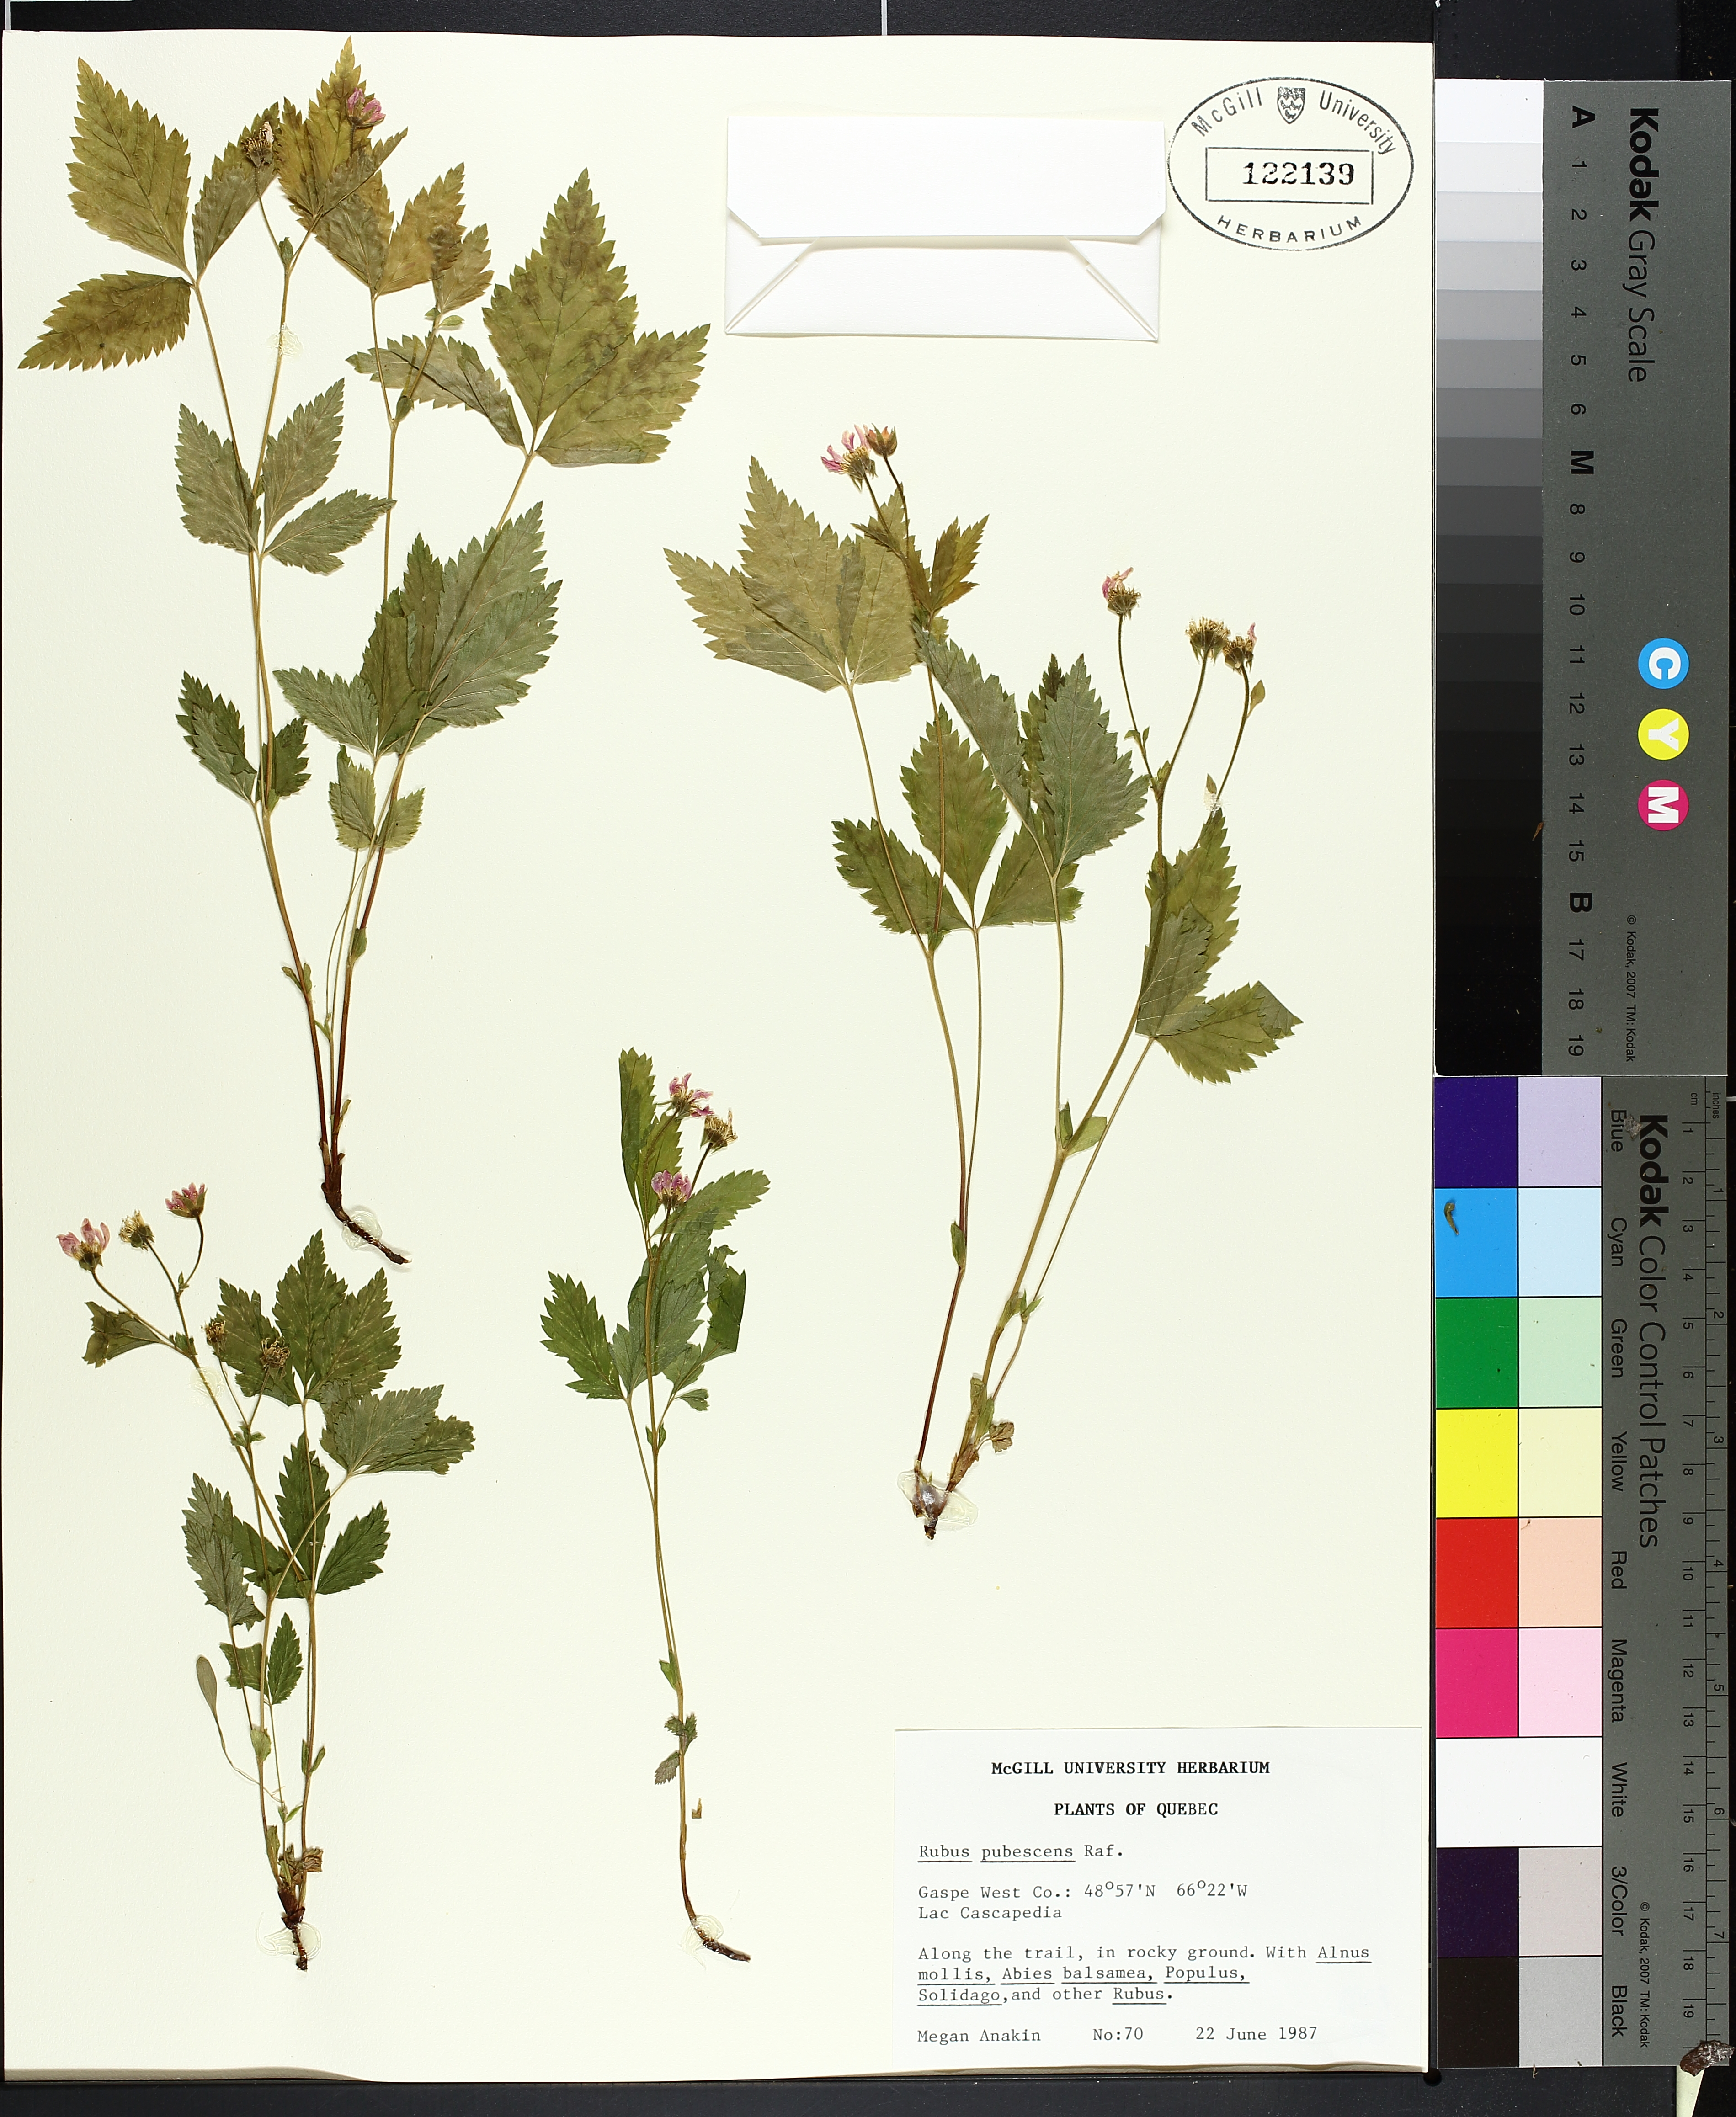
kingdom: Plantae
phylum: Tracheophyta
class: Magnoliopsida
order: Rosales
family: Rosaceae
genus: Rubus
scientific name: Rubus pubescens
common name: Dwarf raspberry
